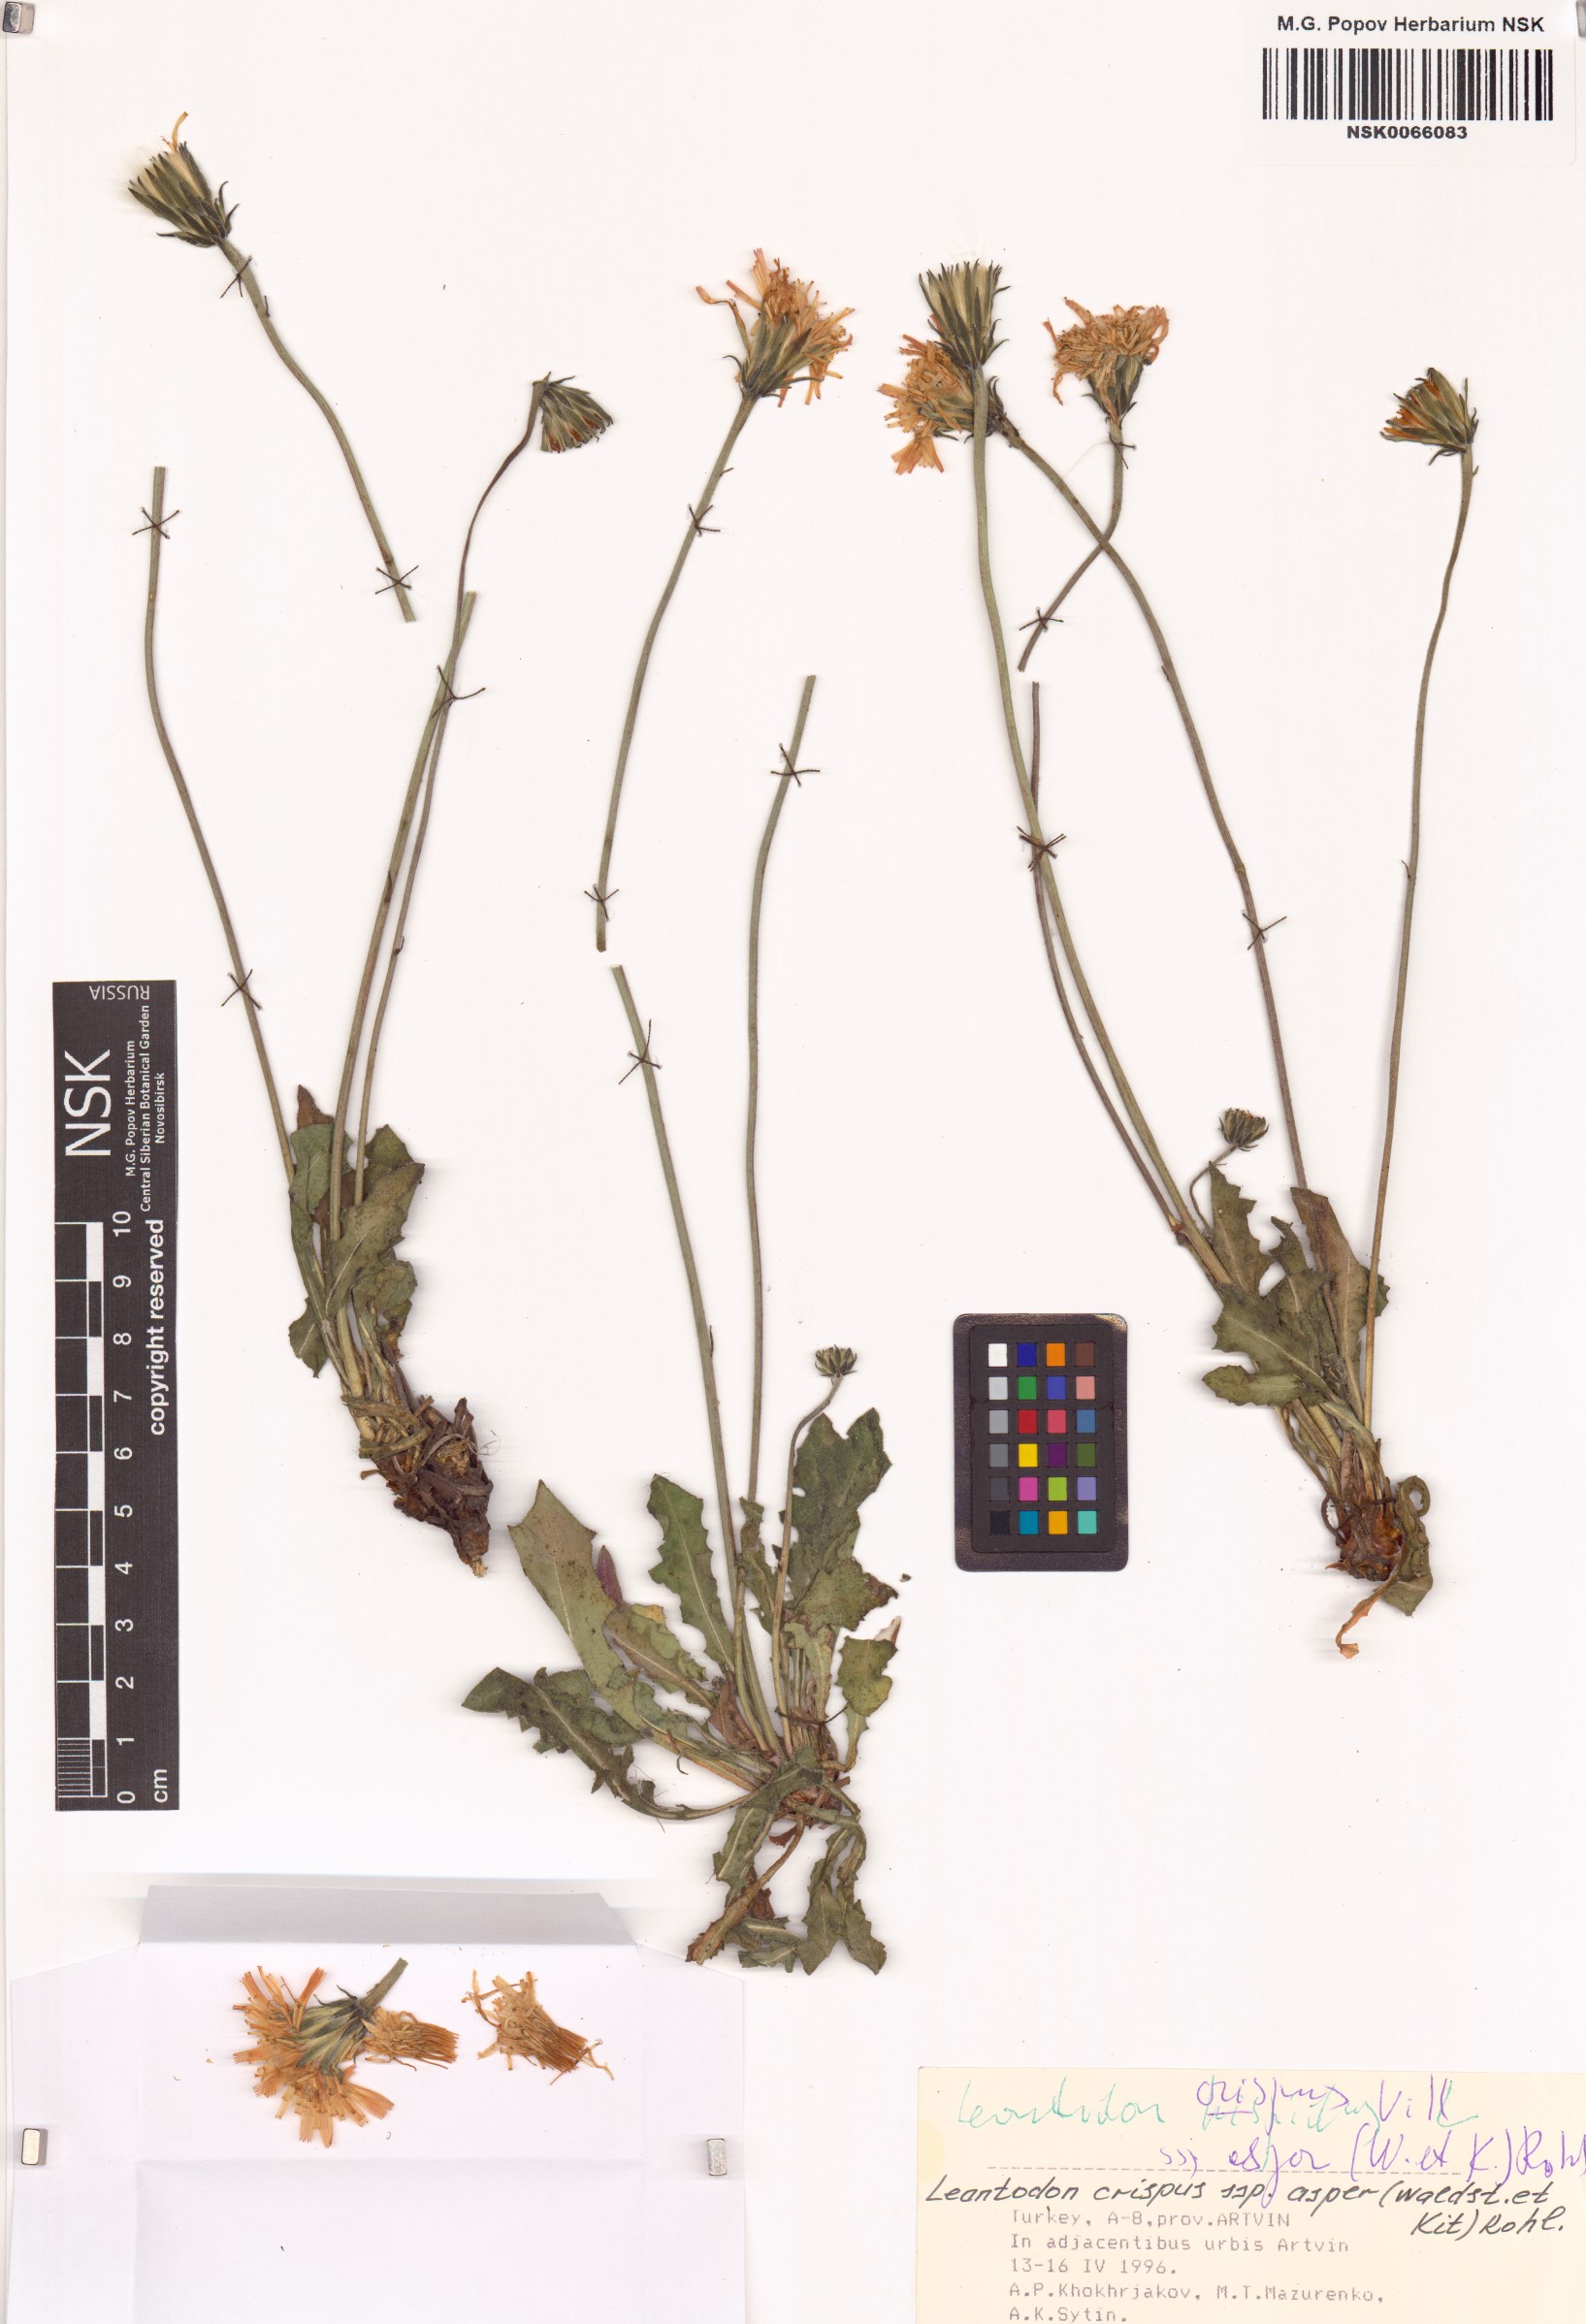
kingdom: Plantae
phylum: Tracheophyta
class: Magnoliopsida
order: Asterales
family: Asteraceae
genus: Leontodon
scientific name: Leontodon biscutellifolius
